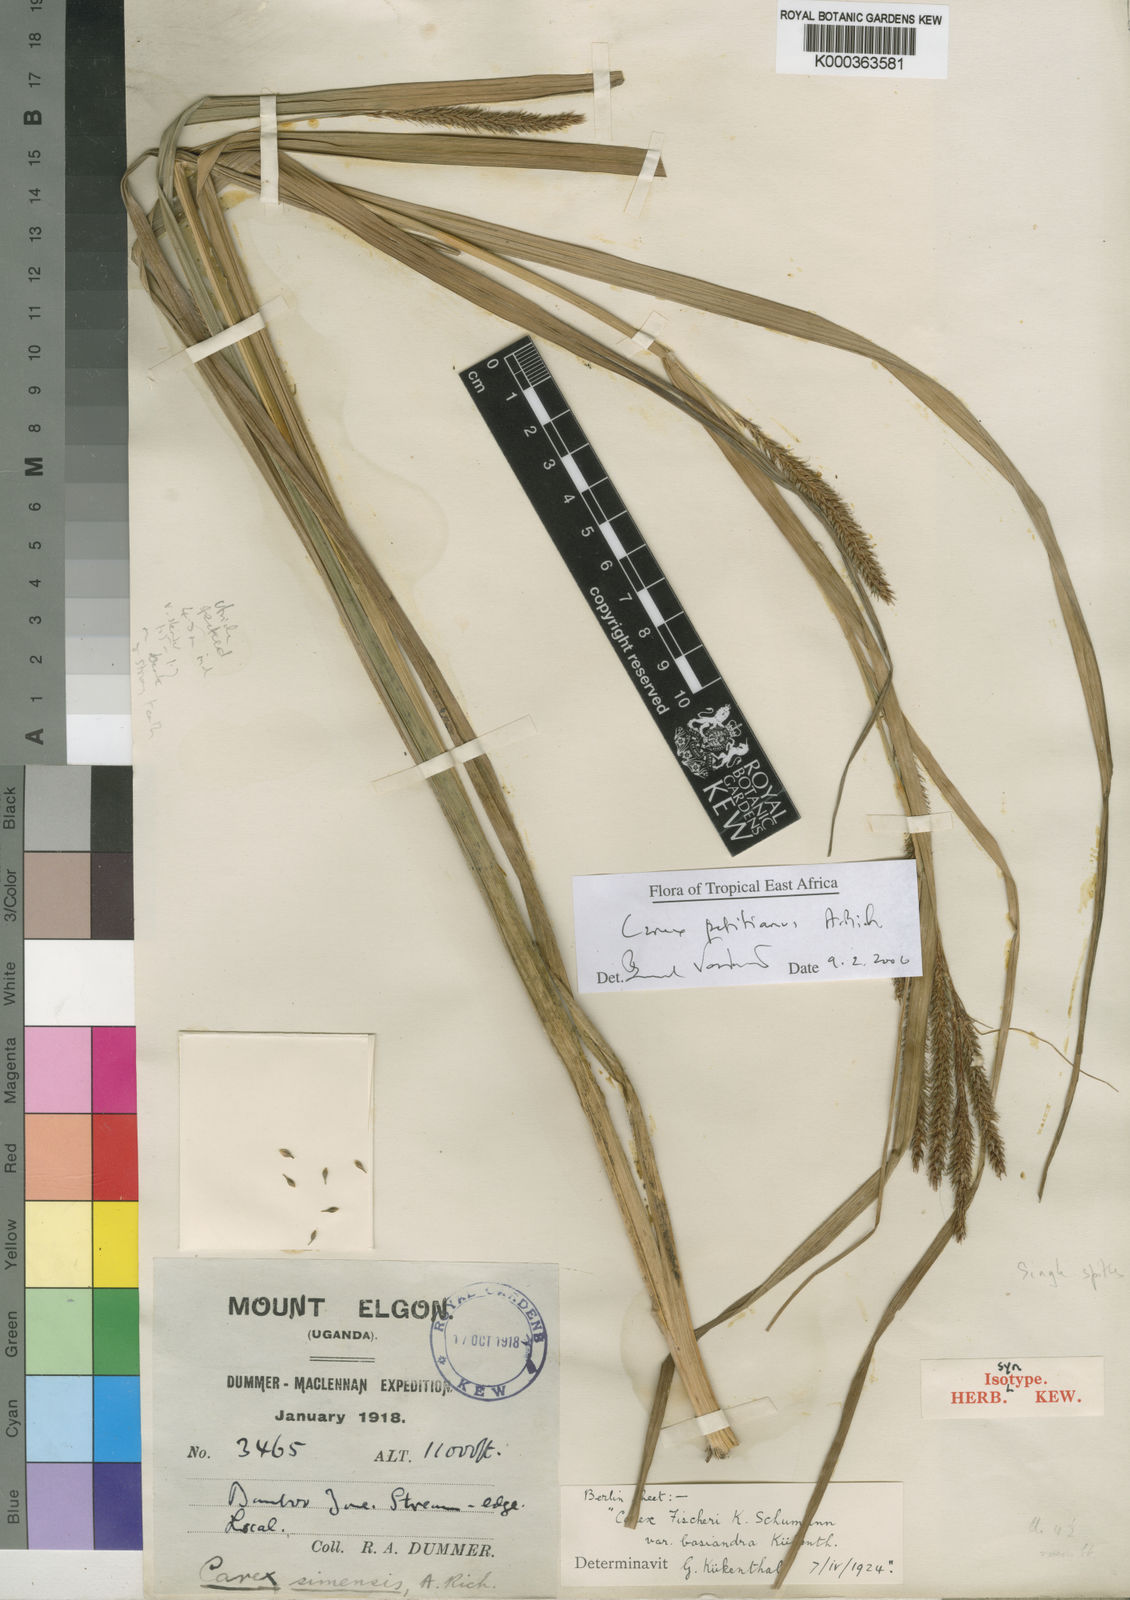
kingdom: Plantae
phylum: Tracheophyta
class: Liliopsida
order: Poales
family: Cyperaceae
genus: Carex
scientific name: Carex fischeri
